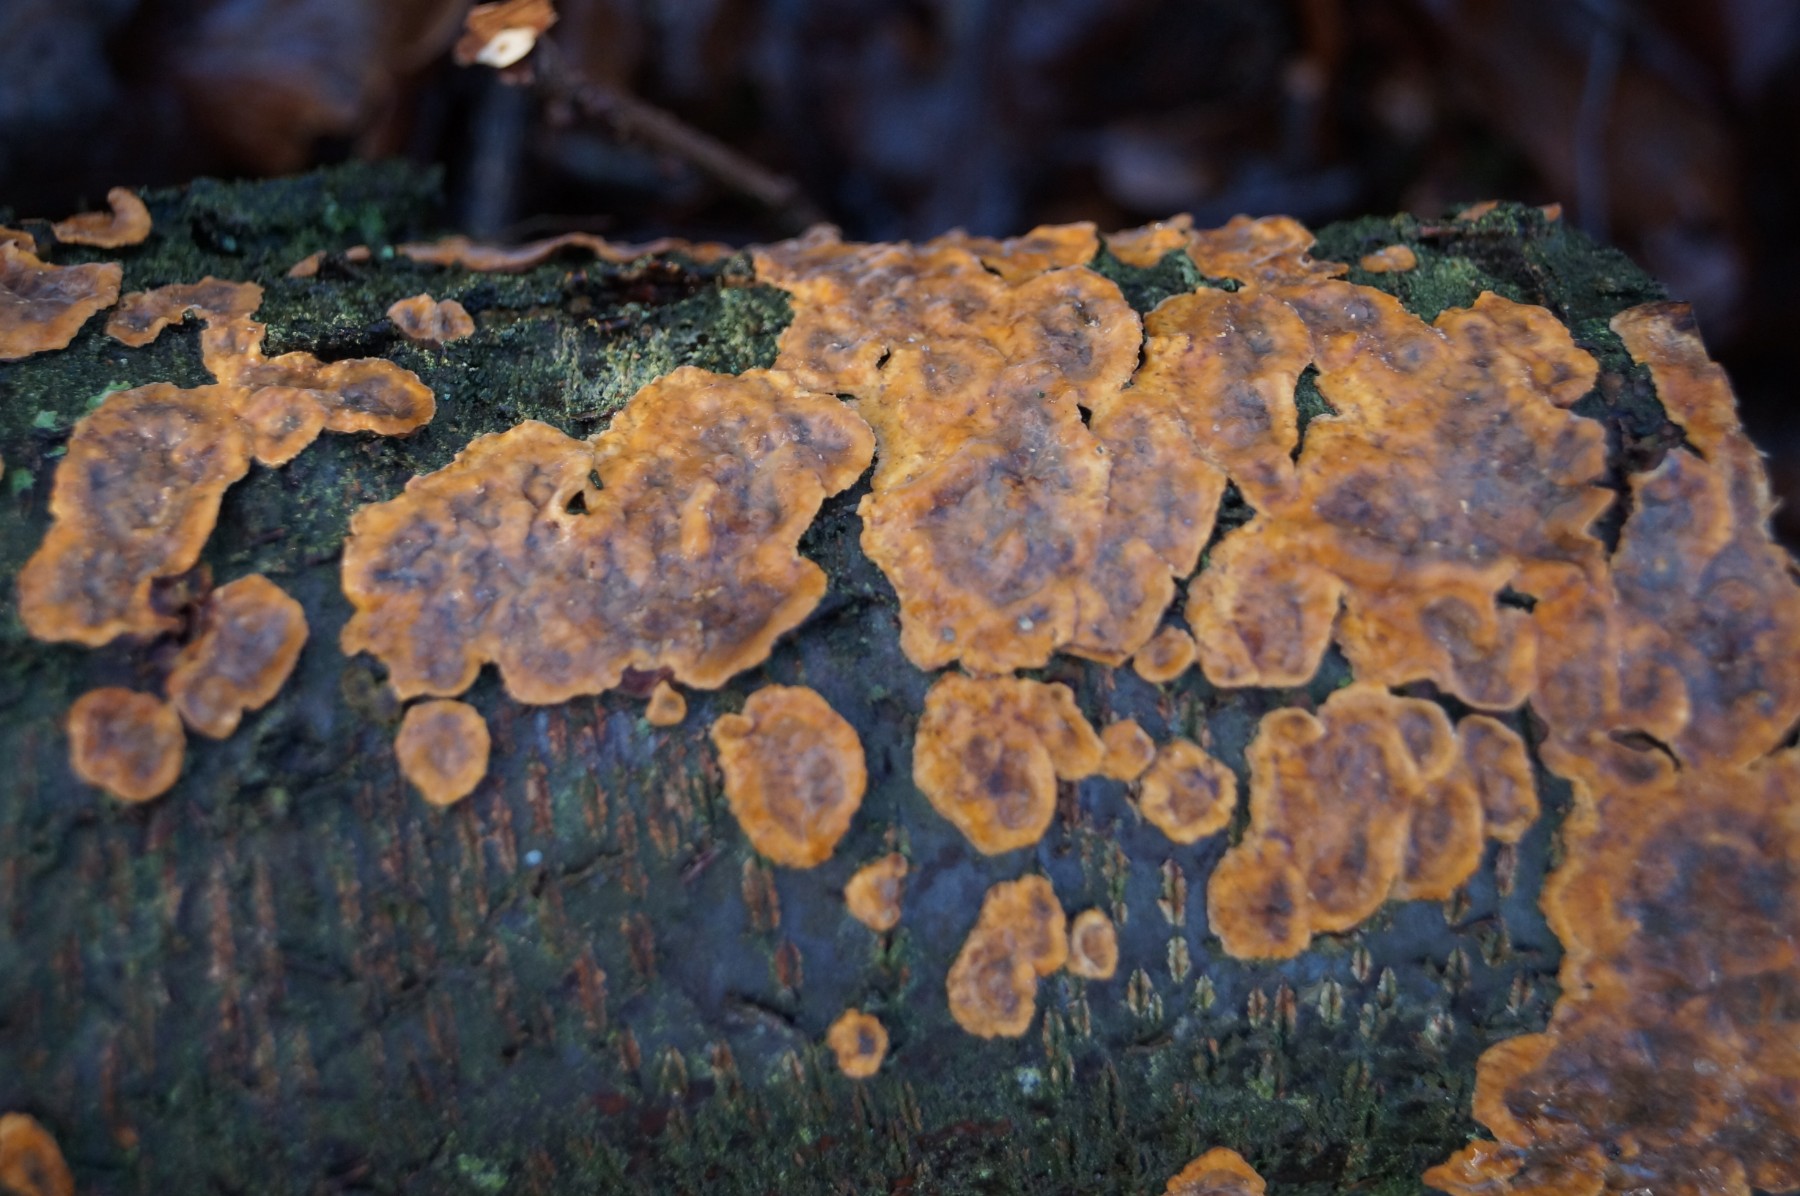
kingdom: Fungi
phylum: Basidiomycota
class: Agaricomycetes
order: Russulales
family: Stereaceae
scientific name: Stereaceae
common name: lædersvampfamilien
